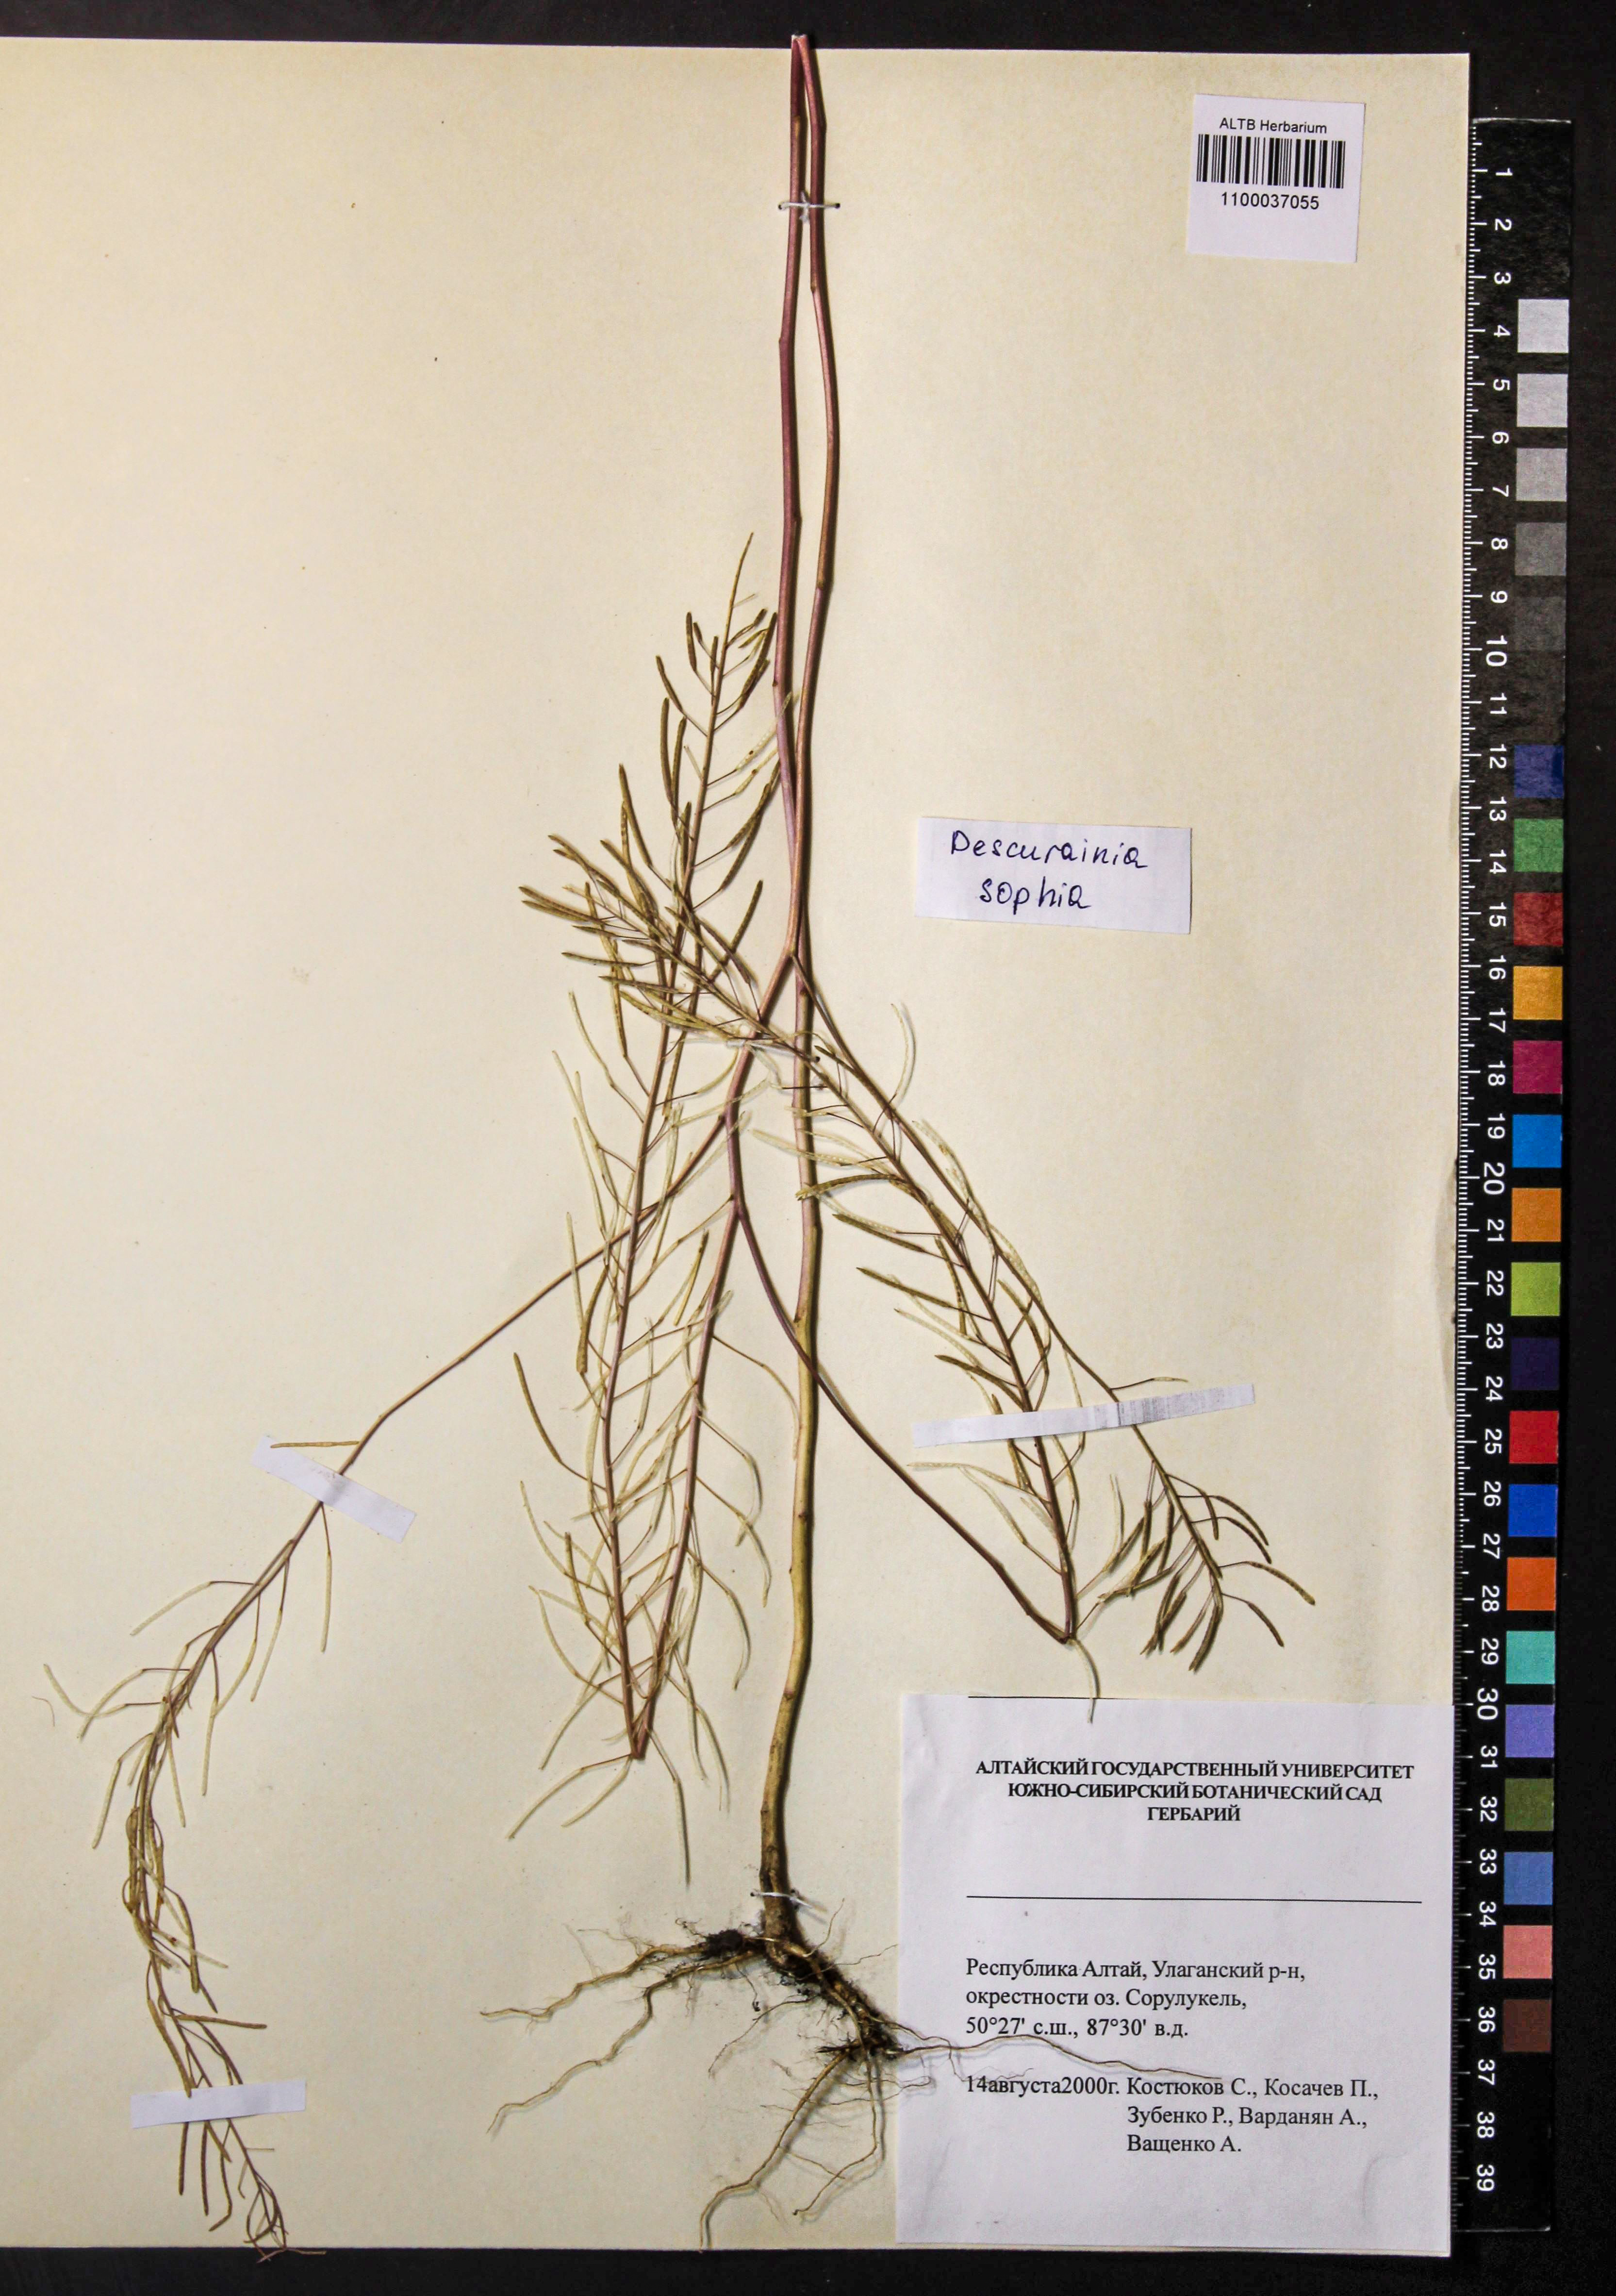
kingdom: Plantae
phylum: Tracheophyta
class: Magnoliopsida
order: Brassicales
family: Brassicaceae
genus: Descurainia
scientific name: Descurainia sophia
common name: Flixweed
